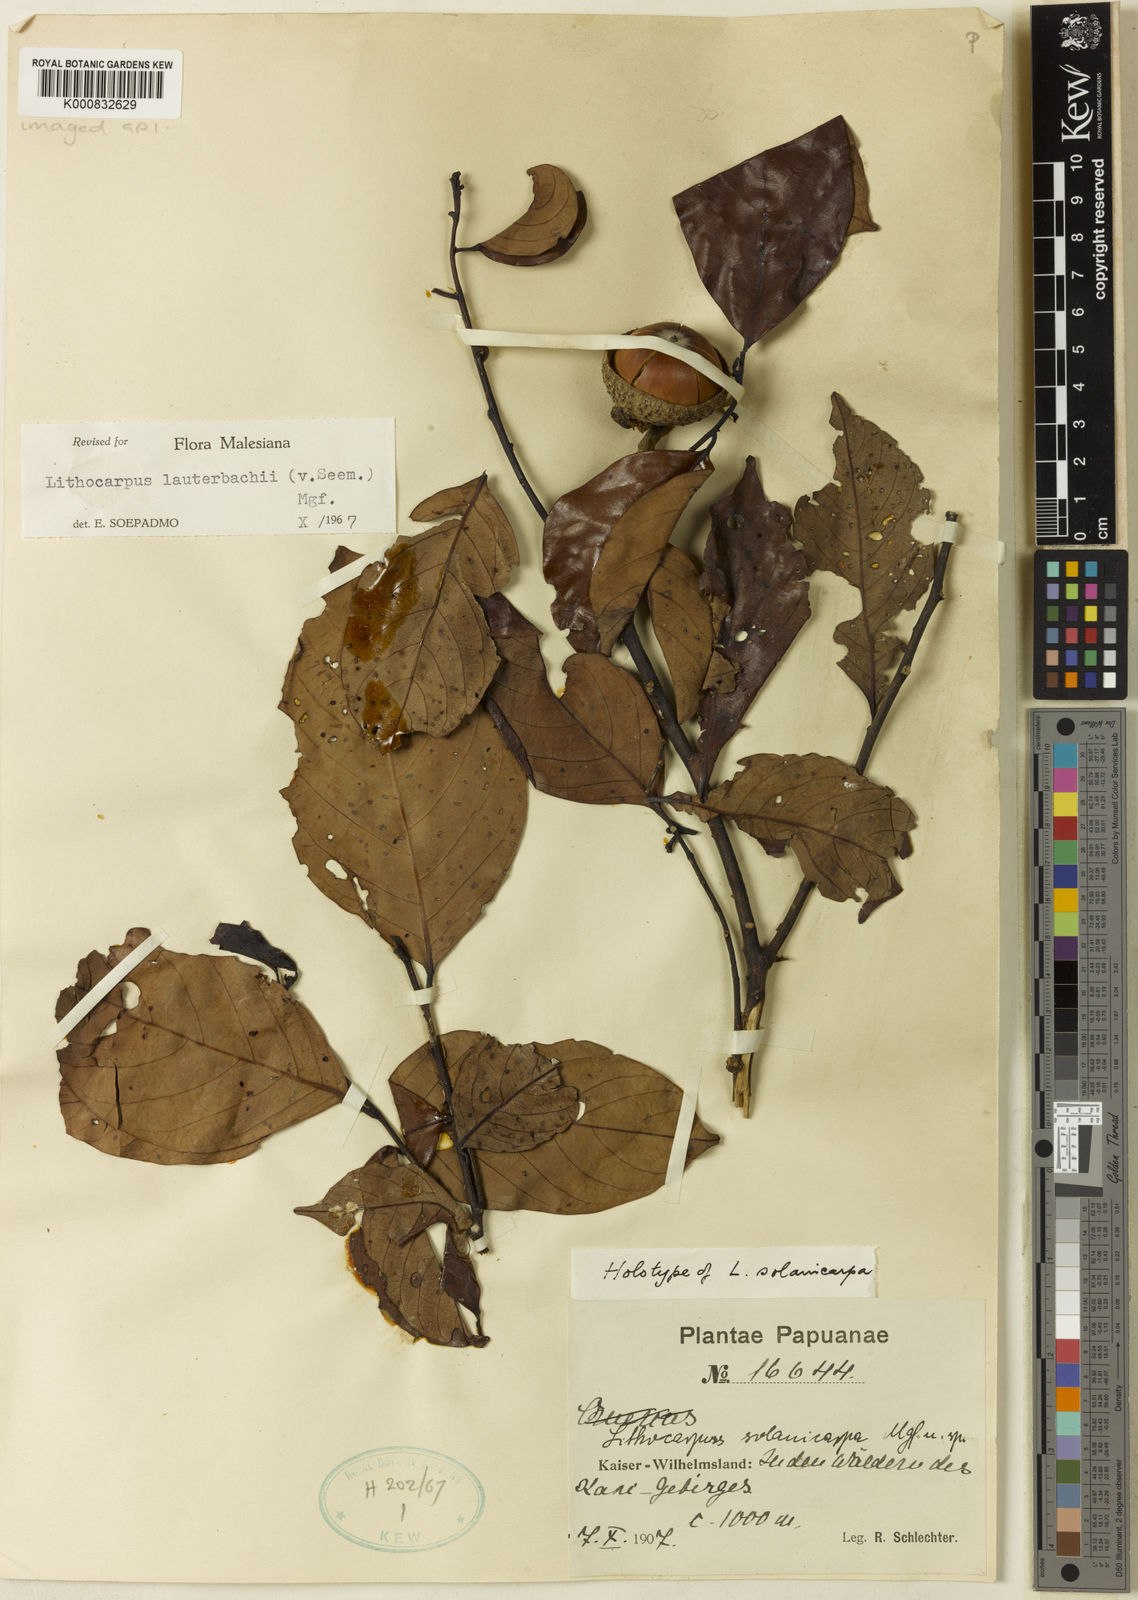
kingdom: Plantae
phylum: Tracheophyta
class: Magnoliopsida
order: Fagales
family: Fagaceae
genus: Lithocarpus
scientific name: Lithocarpus lauterbachii
